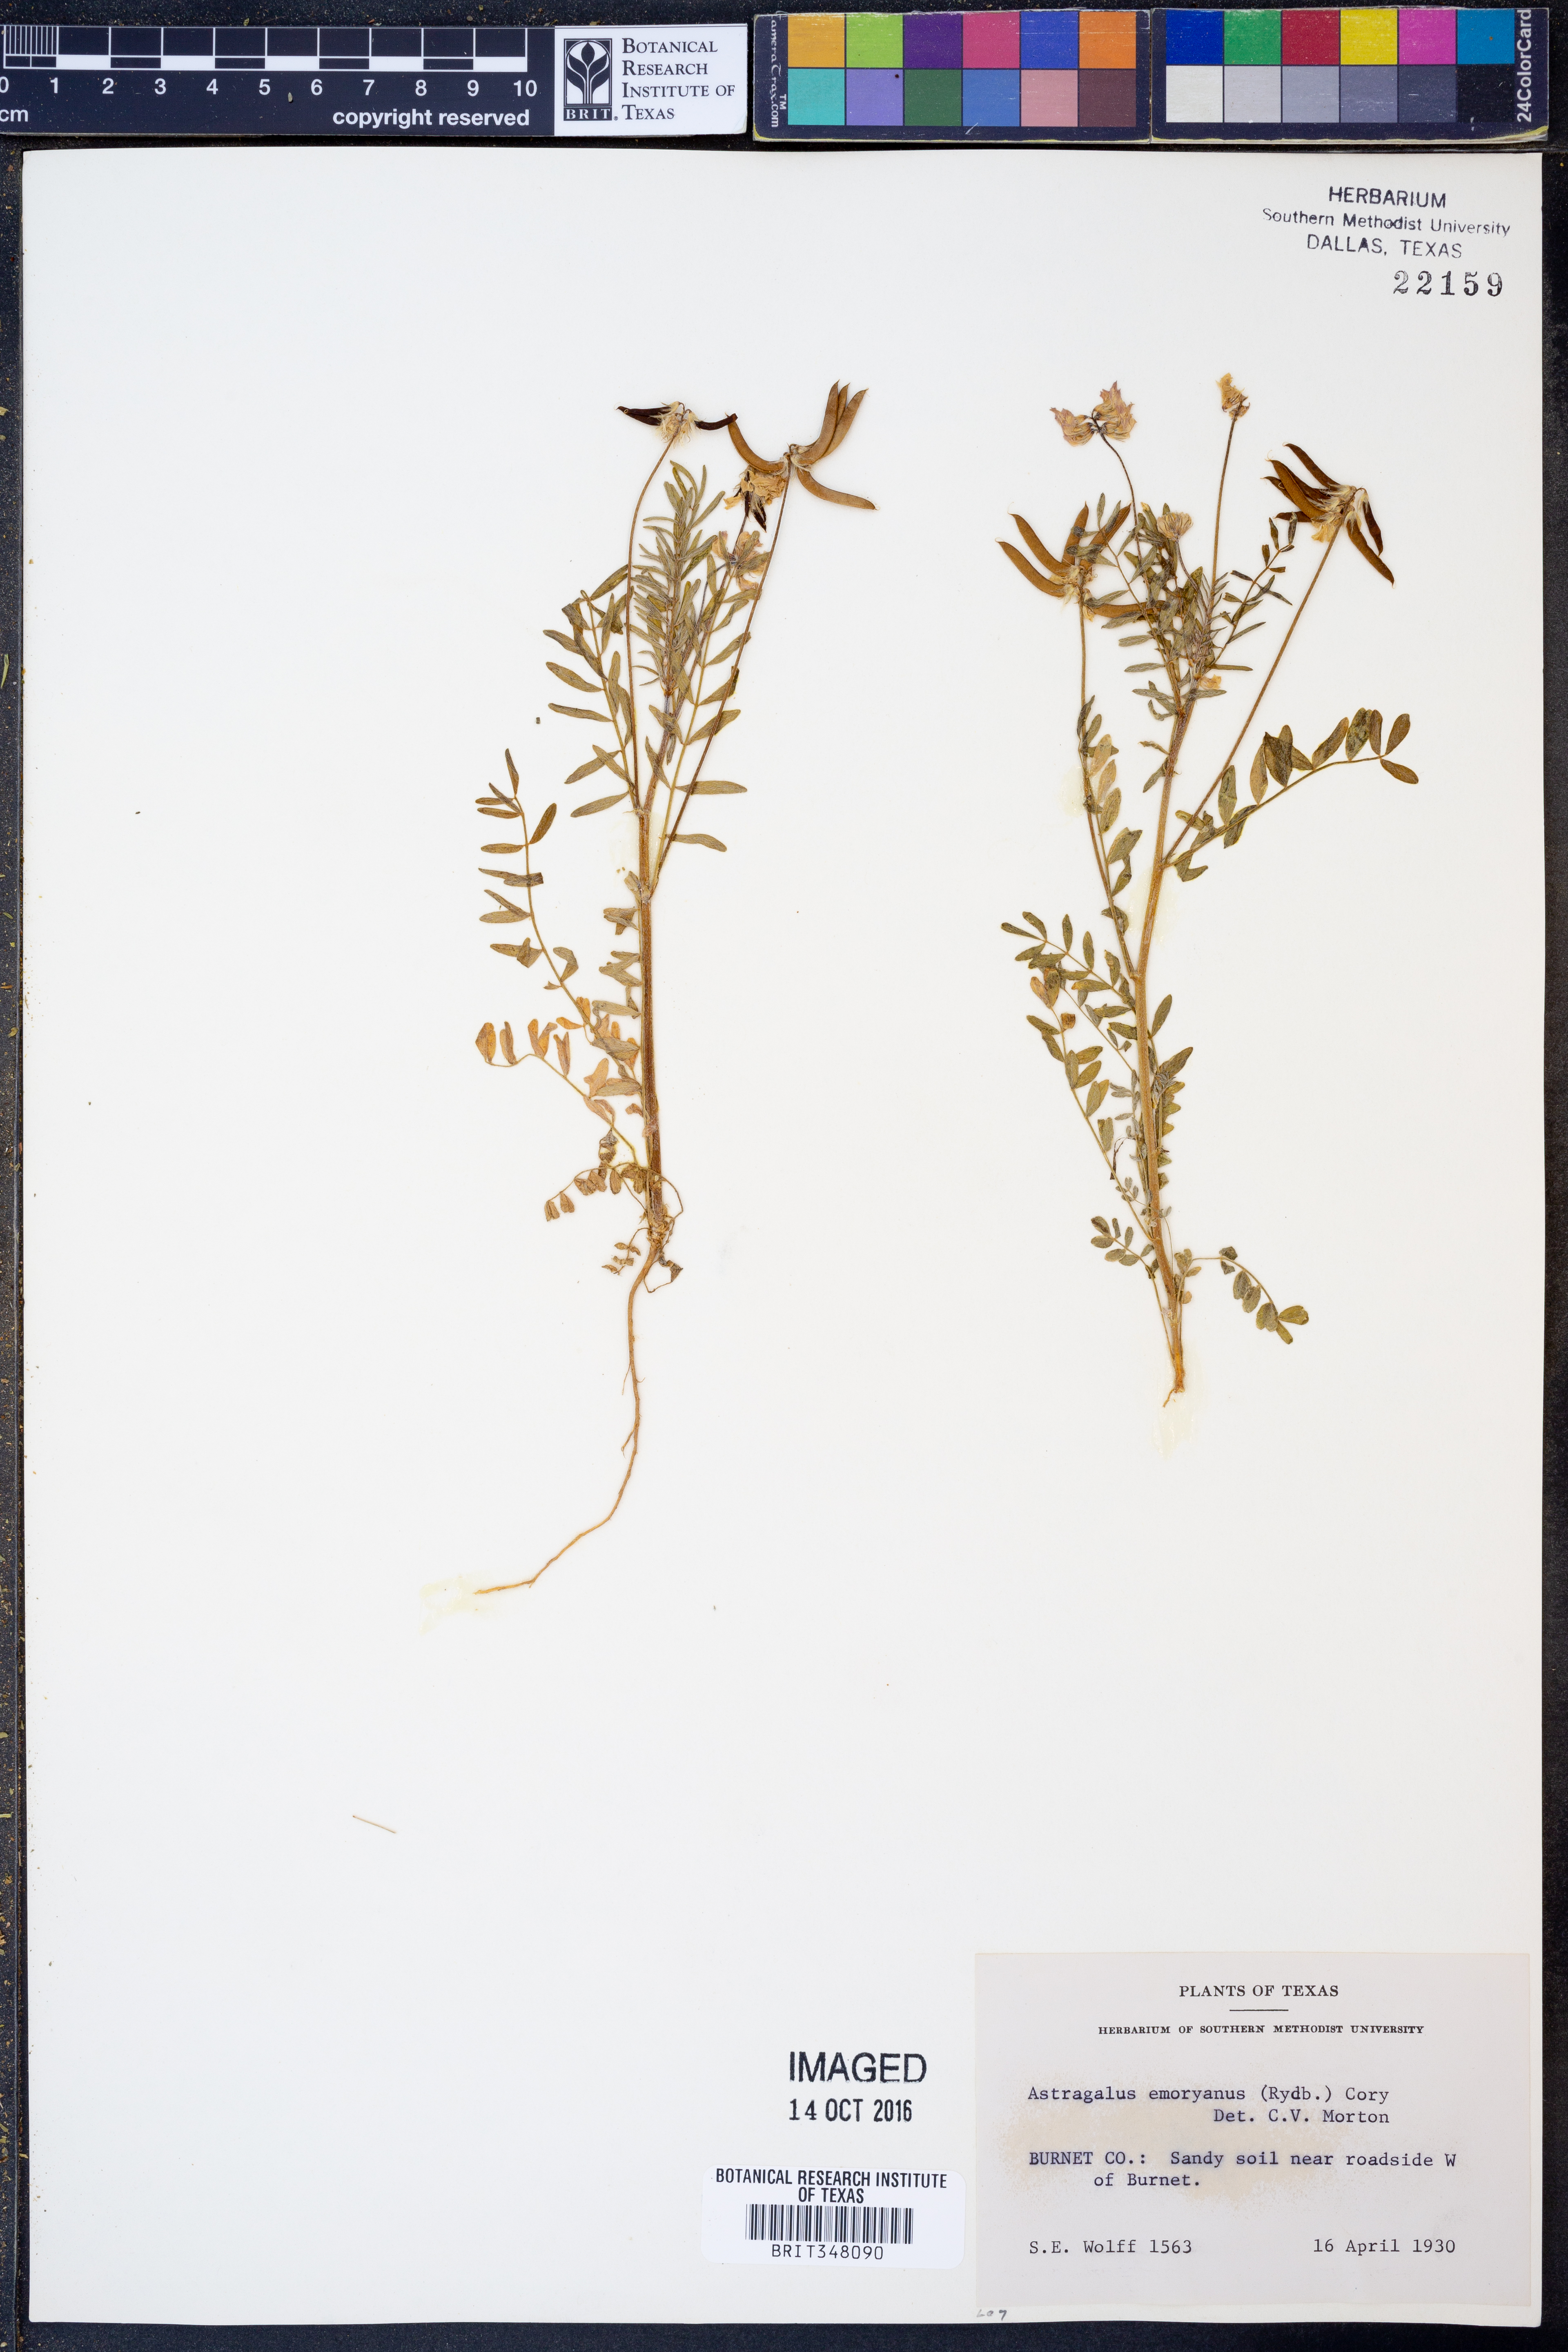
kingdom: Plantae
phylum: Tracheophyta
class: Magnoliopsida
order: Fabales
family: Fabaceae
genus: Astragalus
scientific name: Astragalus emoryanus
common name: Emory's milk-vetch
